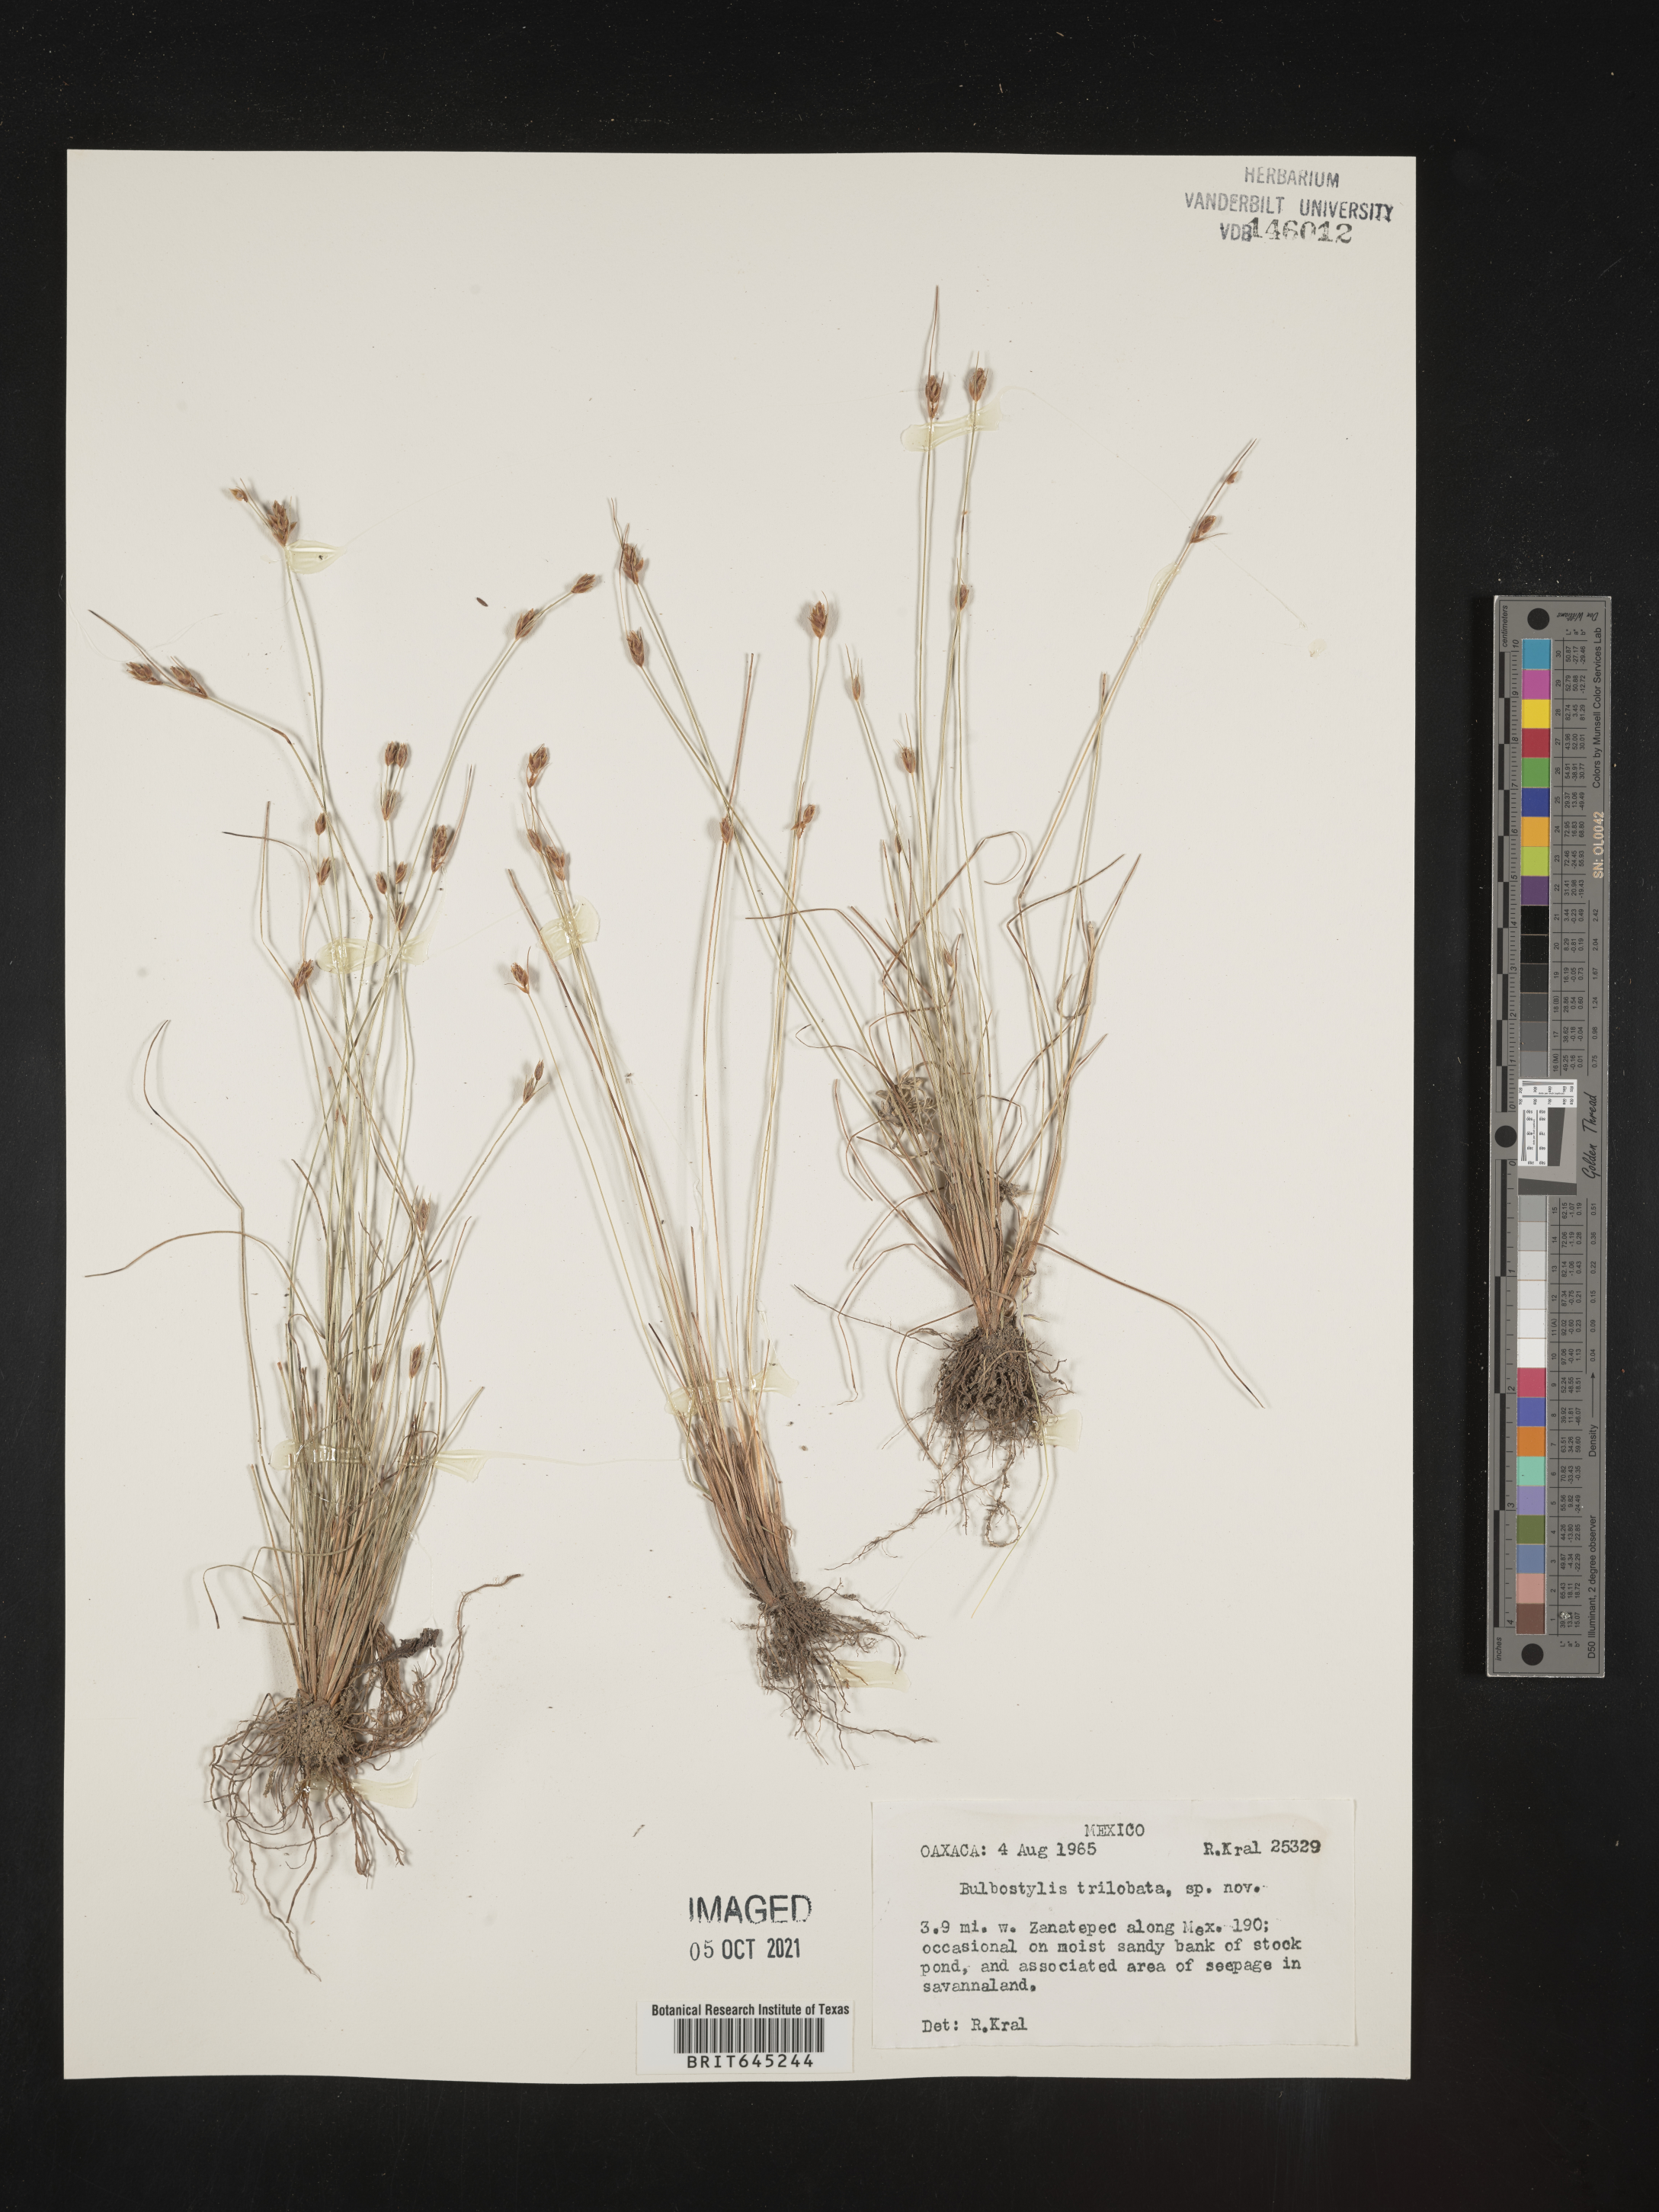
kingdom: Plantae
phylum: Tracheophyta
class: Liliopsida
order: Poales
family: Cyperaceae
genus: Bulbostylis
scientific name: Bulbostylis trilobata
